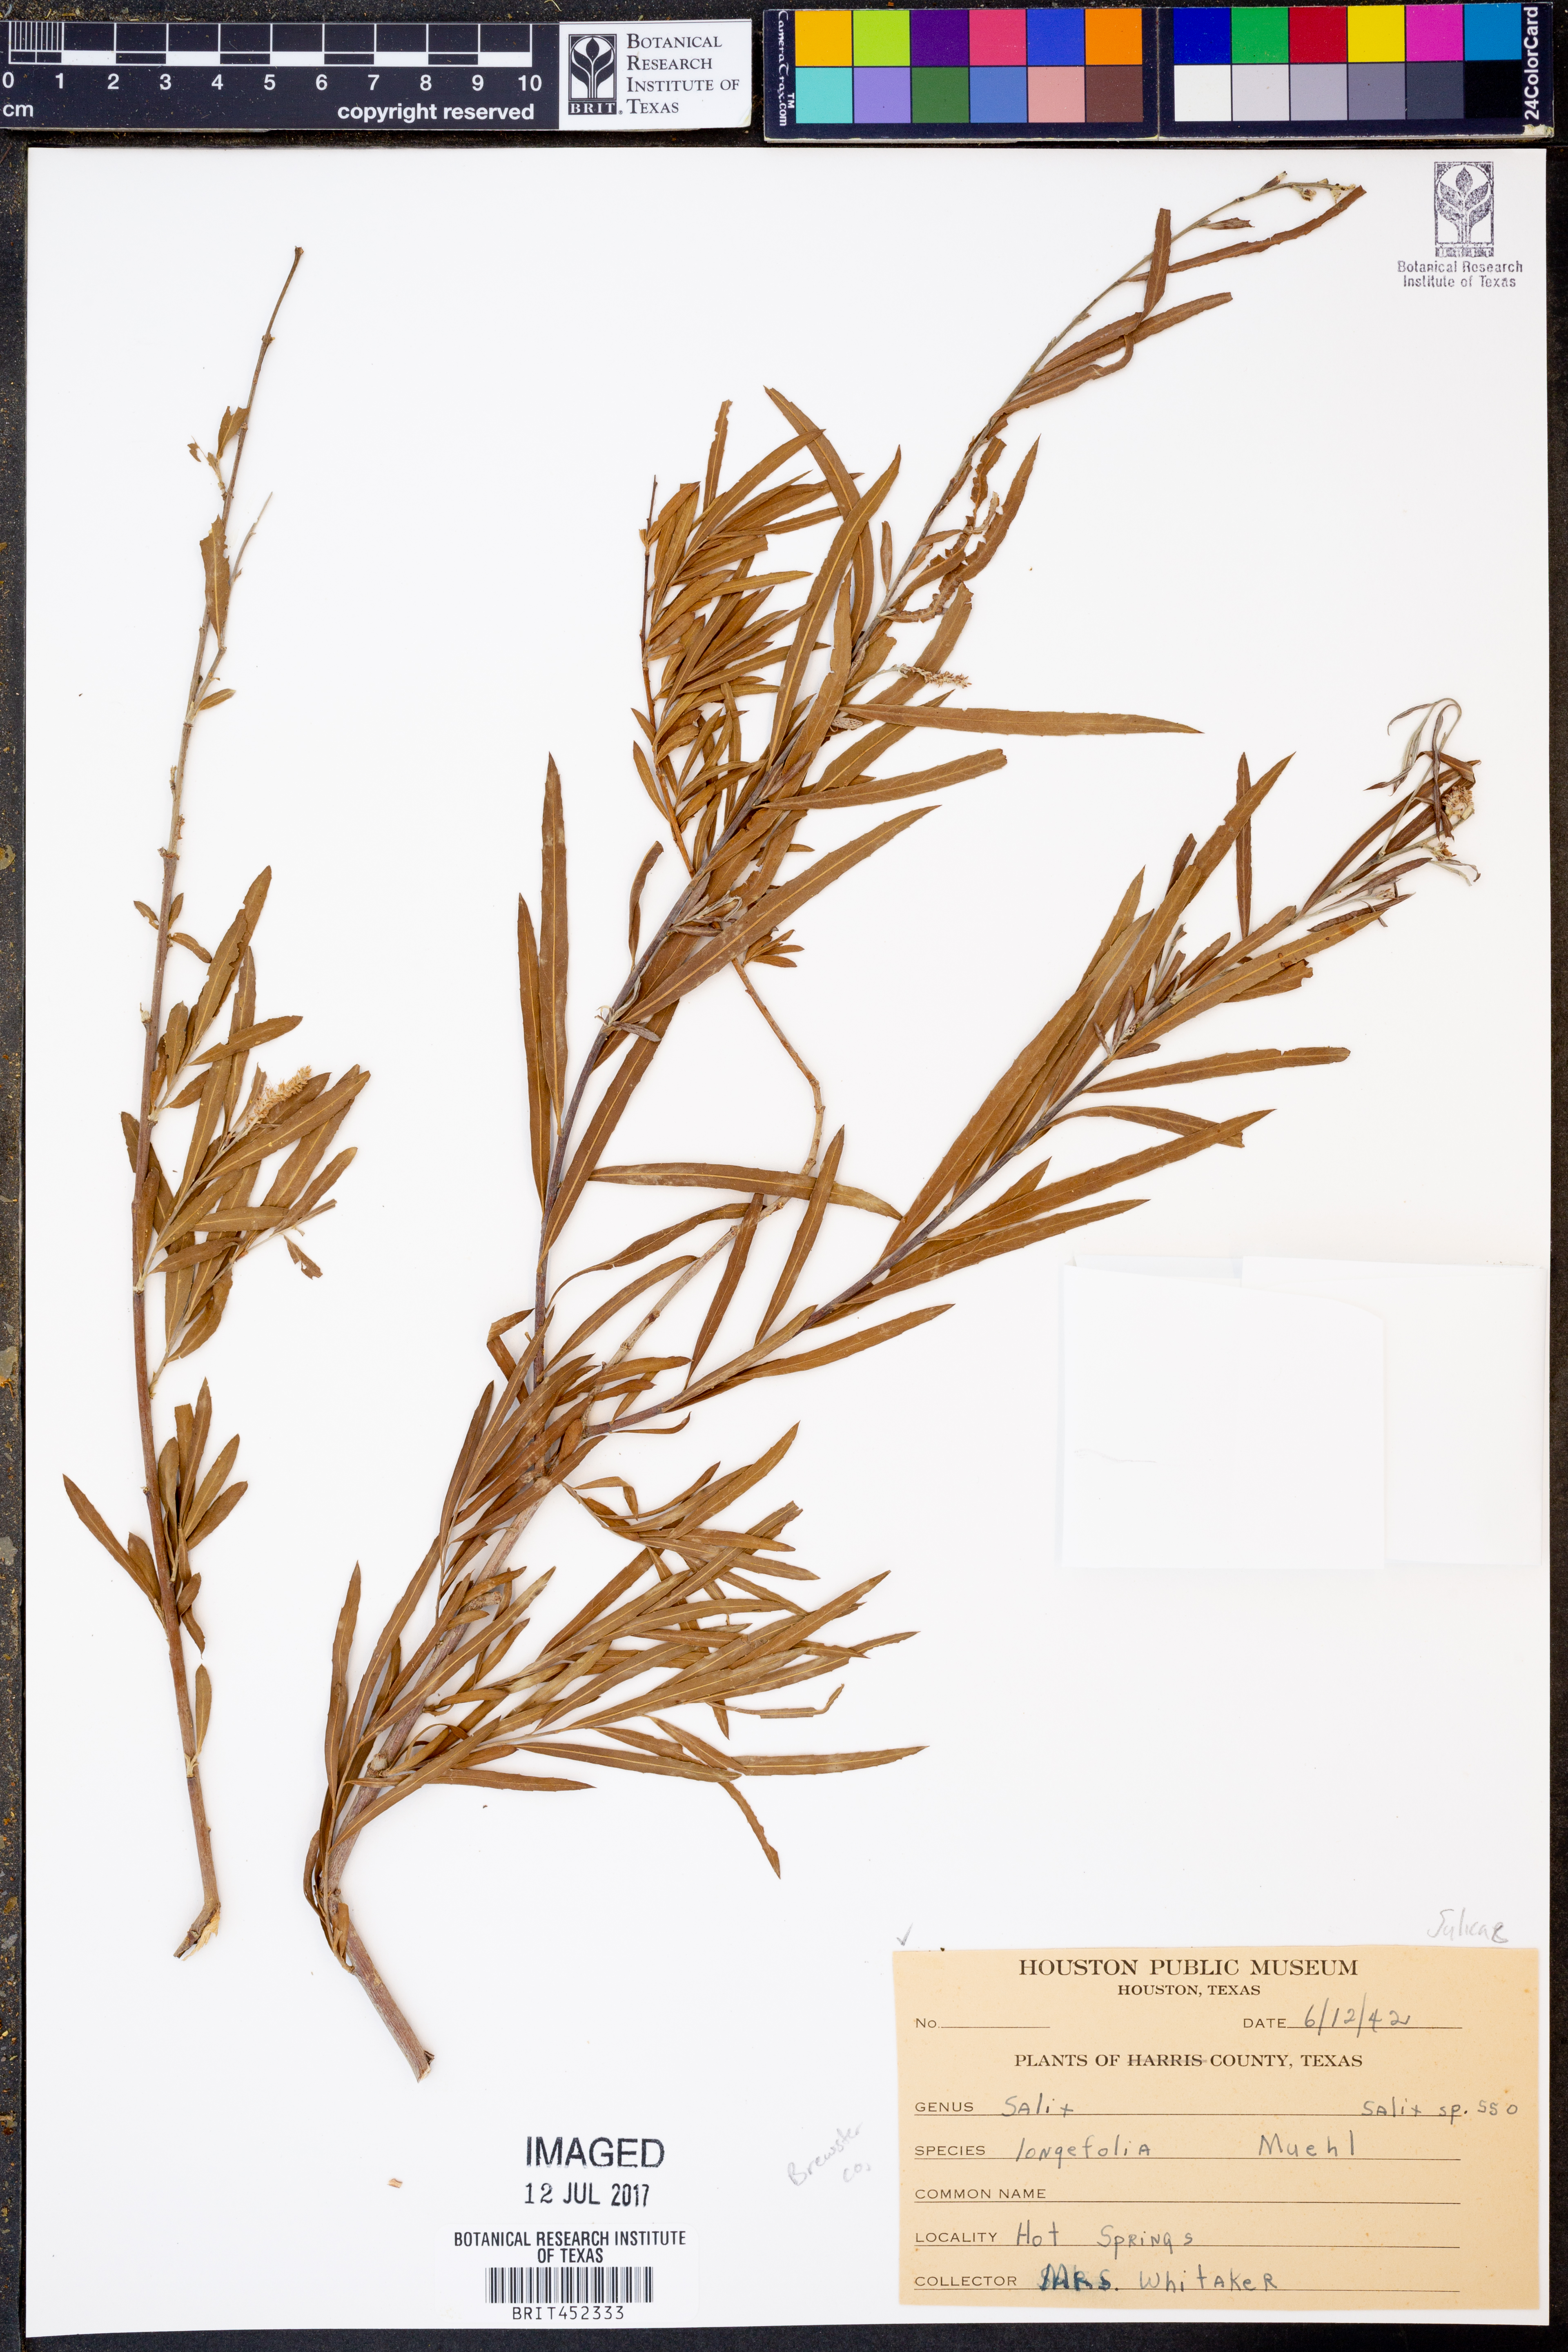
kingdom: Plantae
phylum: Tracheophyta
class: Magnoliopsida
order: Malpighiales
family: Salicaceae
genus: Salix
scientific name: Salix interior
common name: Sandbar willow
